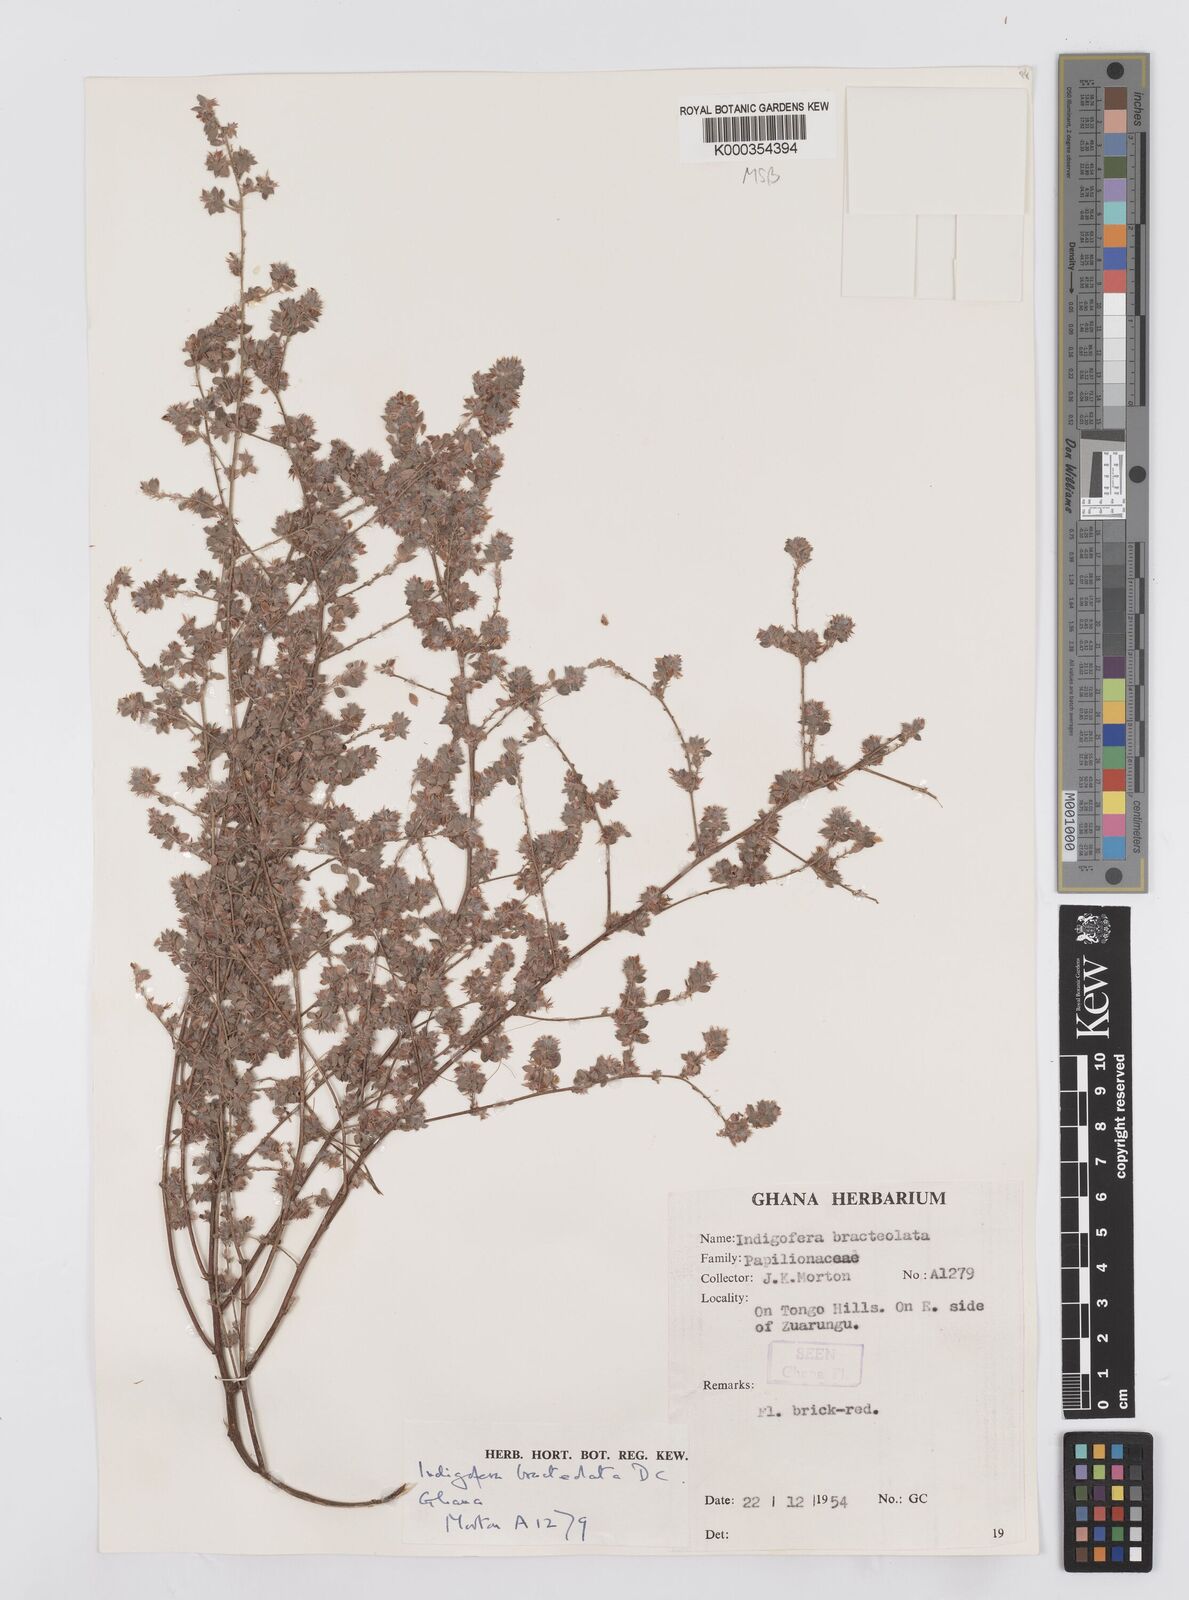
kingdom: Plantae
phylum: Tracheophyta
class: Magnoliopsida
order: Fabales
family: Fabaceae
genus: Indigofera
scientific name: Indigofera bracteolata
